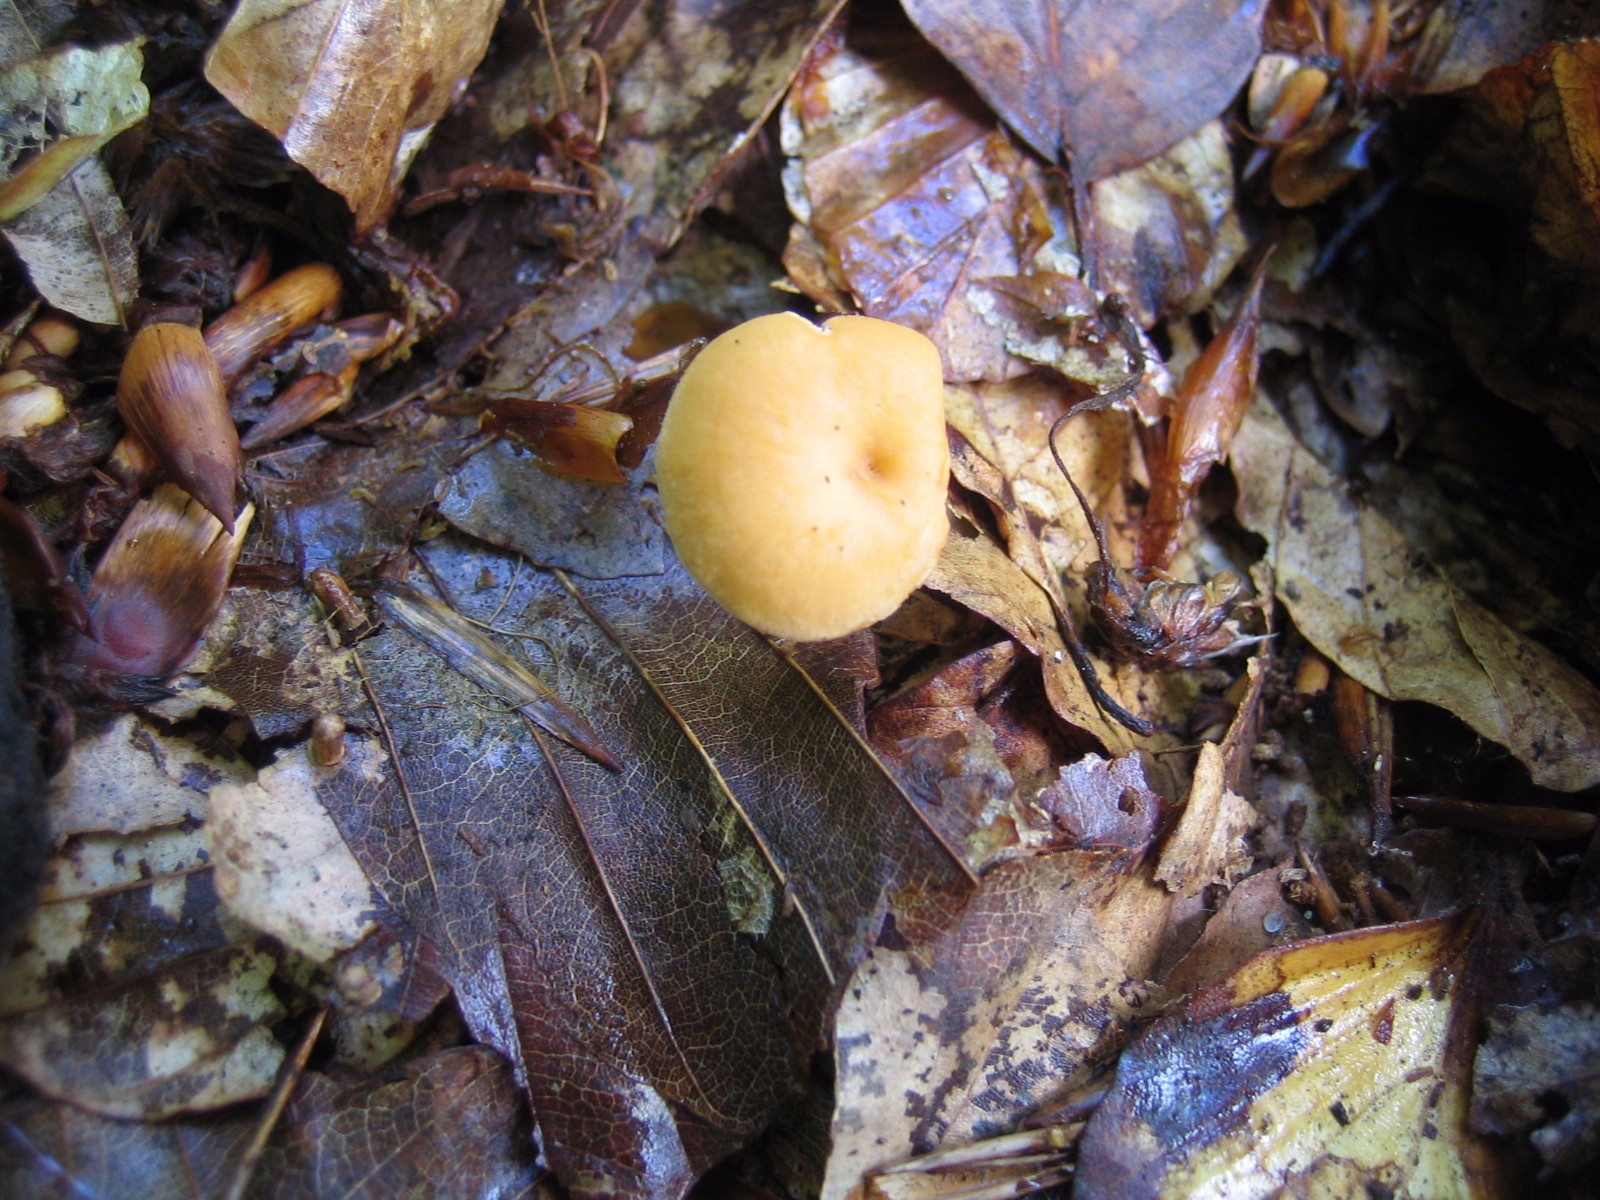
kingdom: Fungi
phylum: Basidiomycota
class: Agaricomycetes
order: Cantharellales
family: Hydnaceae
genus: Hydnum
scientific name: Hydnum
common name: pigsvamp
